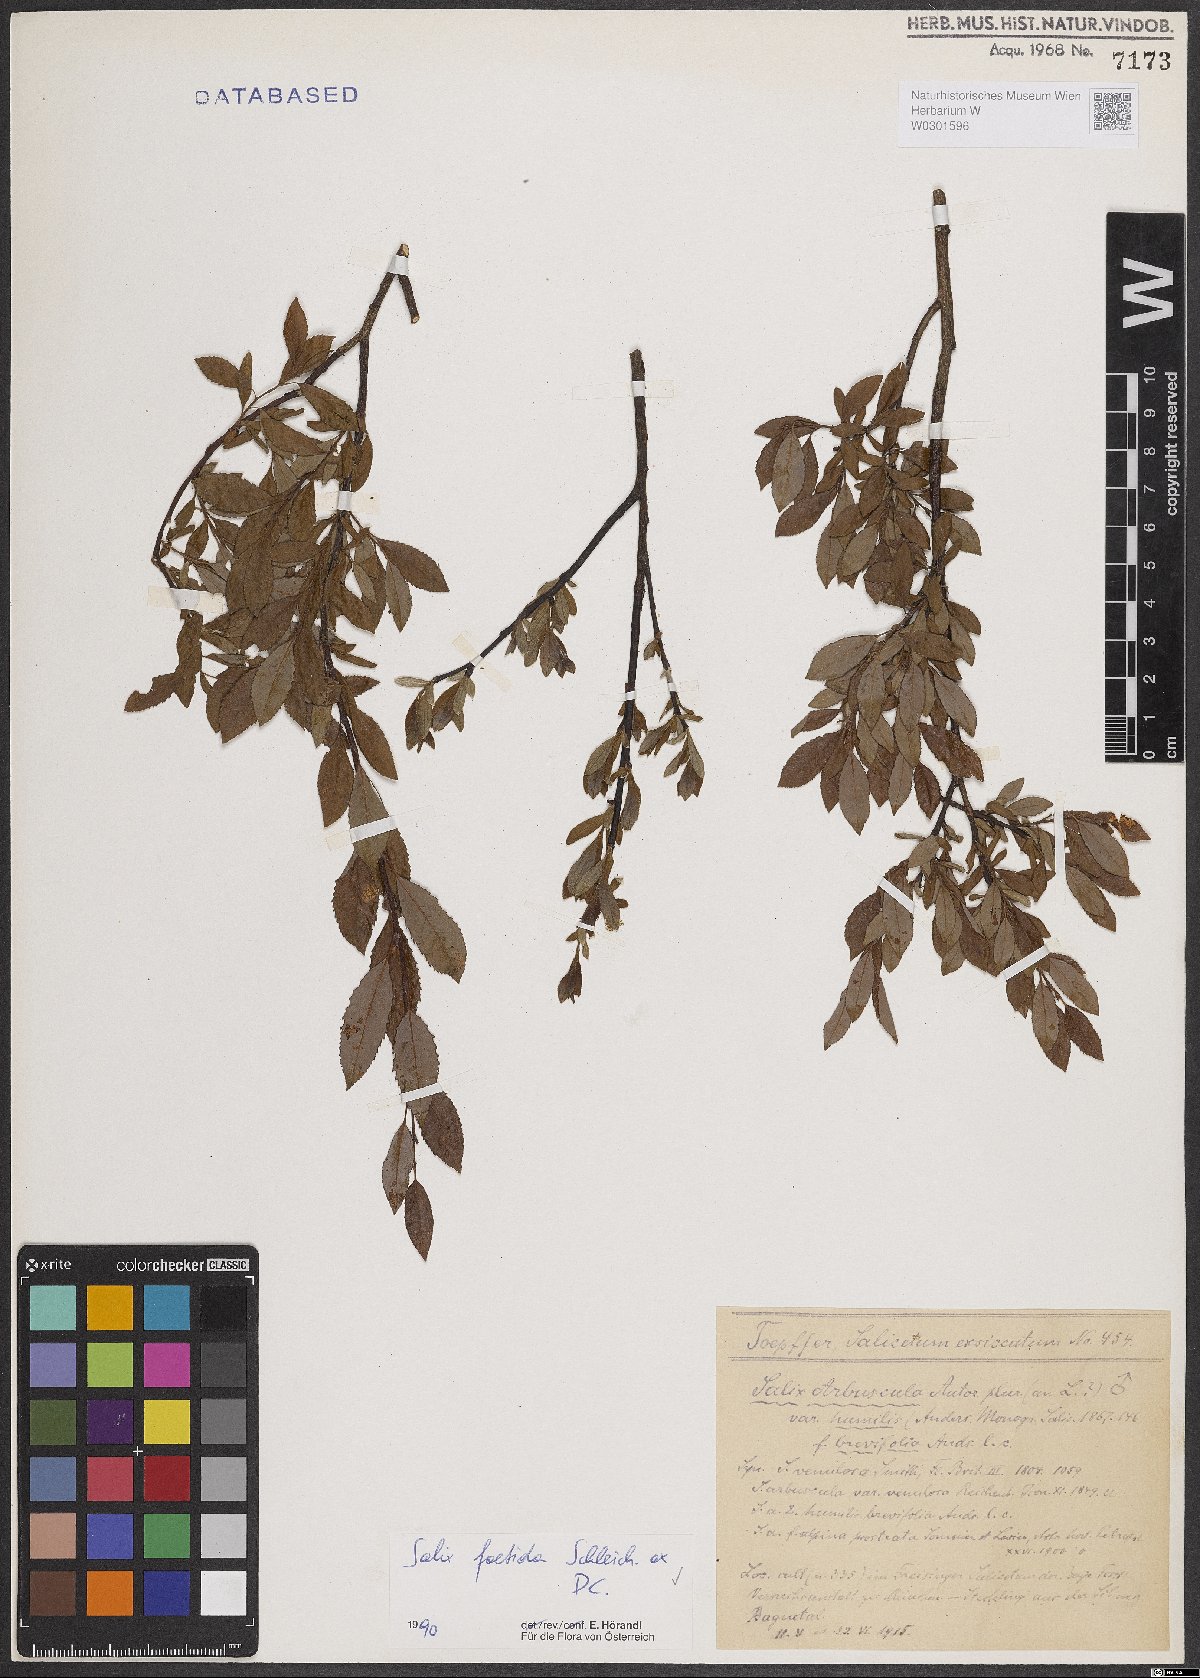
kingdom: Plantae
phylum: Tracheophyta
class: Magnoliopsida
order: Malpighiales
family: Salicaceae
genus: Salix
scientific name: Salix foetida
